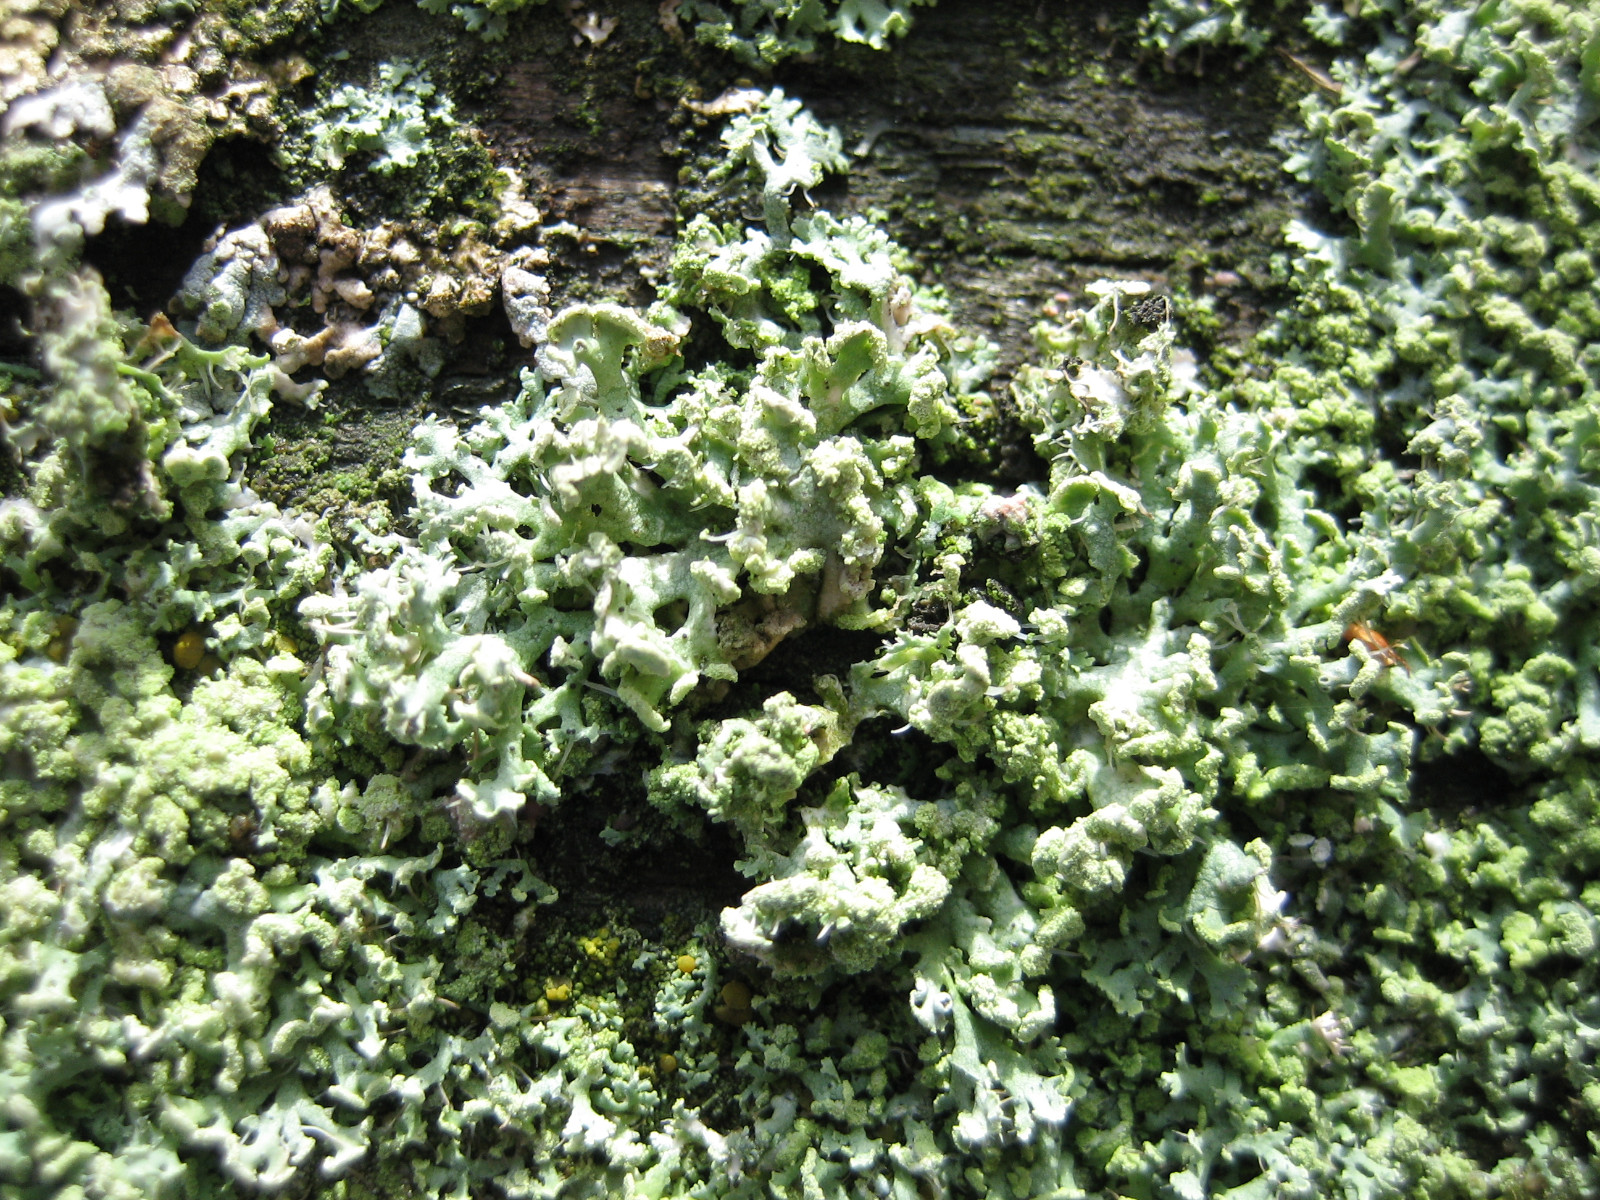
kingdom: Fungi
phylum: Ascomycota
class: Lecanoromycetes
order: Caliciales
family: Physciaceae
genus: Physcia
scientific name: Physcia tenella
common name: spæd rosetlav
